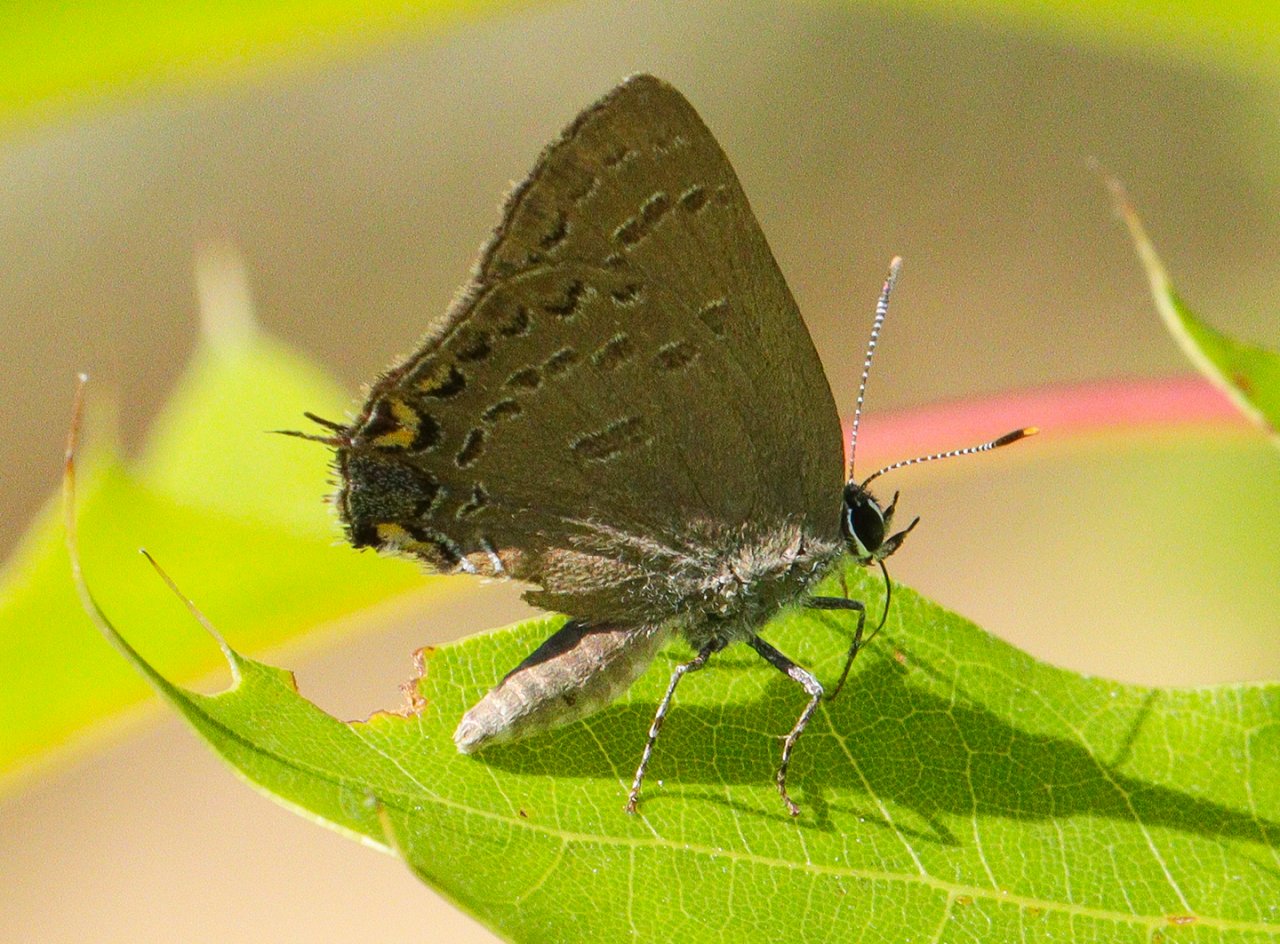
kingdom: Animalia
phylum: Arthropoda
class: Insecta
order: Lepidoptera
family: Lycaenidae
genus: Satyrium
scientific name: Satyrium edwardsii
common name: Edwards' Hairstreak
